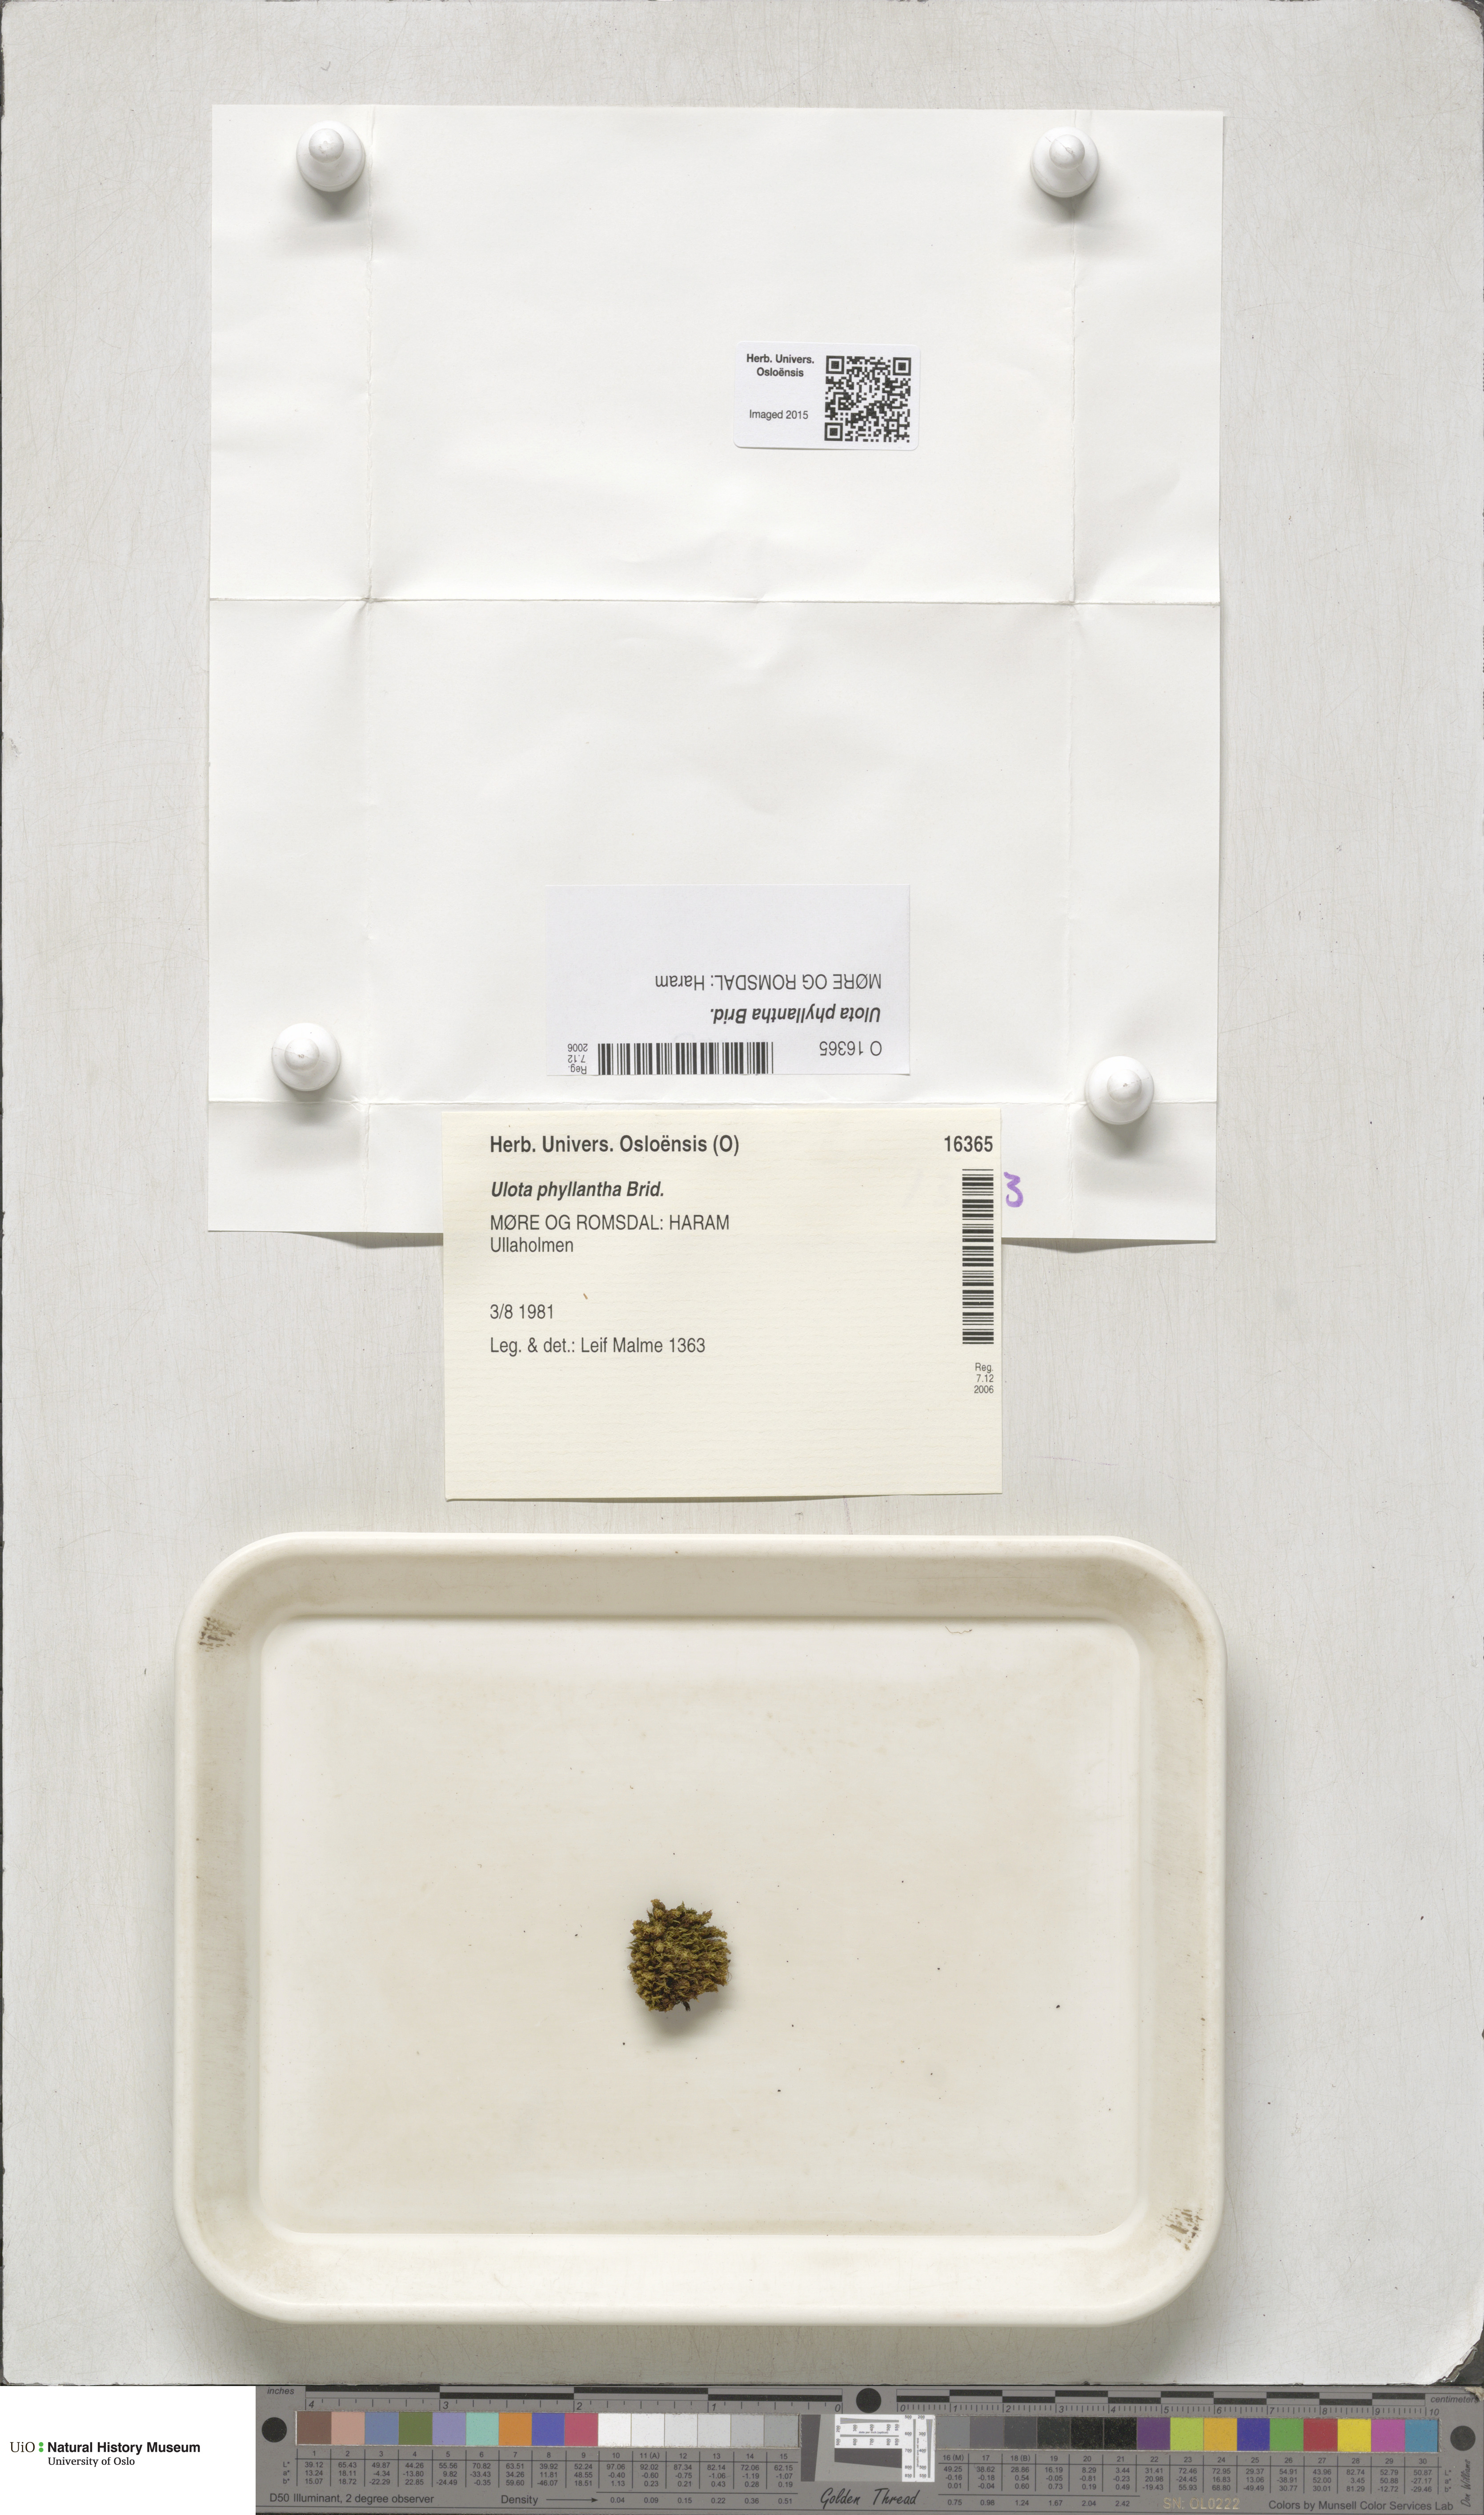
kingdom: Plantae
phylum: Bryophyta
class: Bryopsida
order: Orthotrichales
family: Orthotrichaceae
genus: Plenogemma
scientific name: Plenogemma phyllantha
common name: Frizzled pincushion
